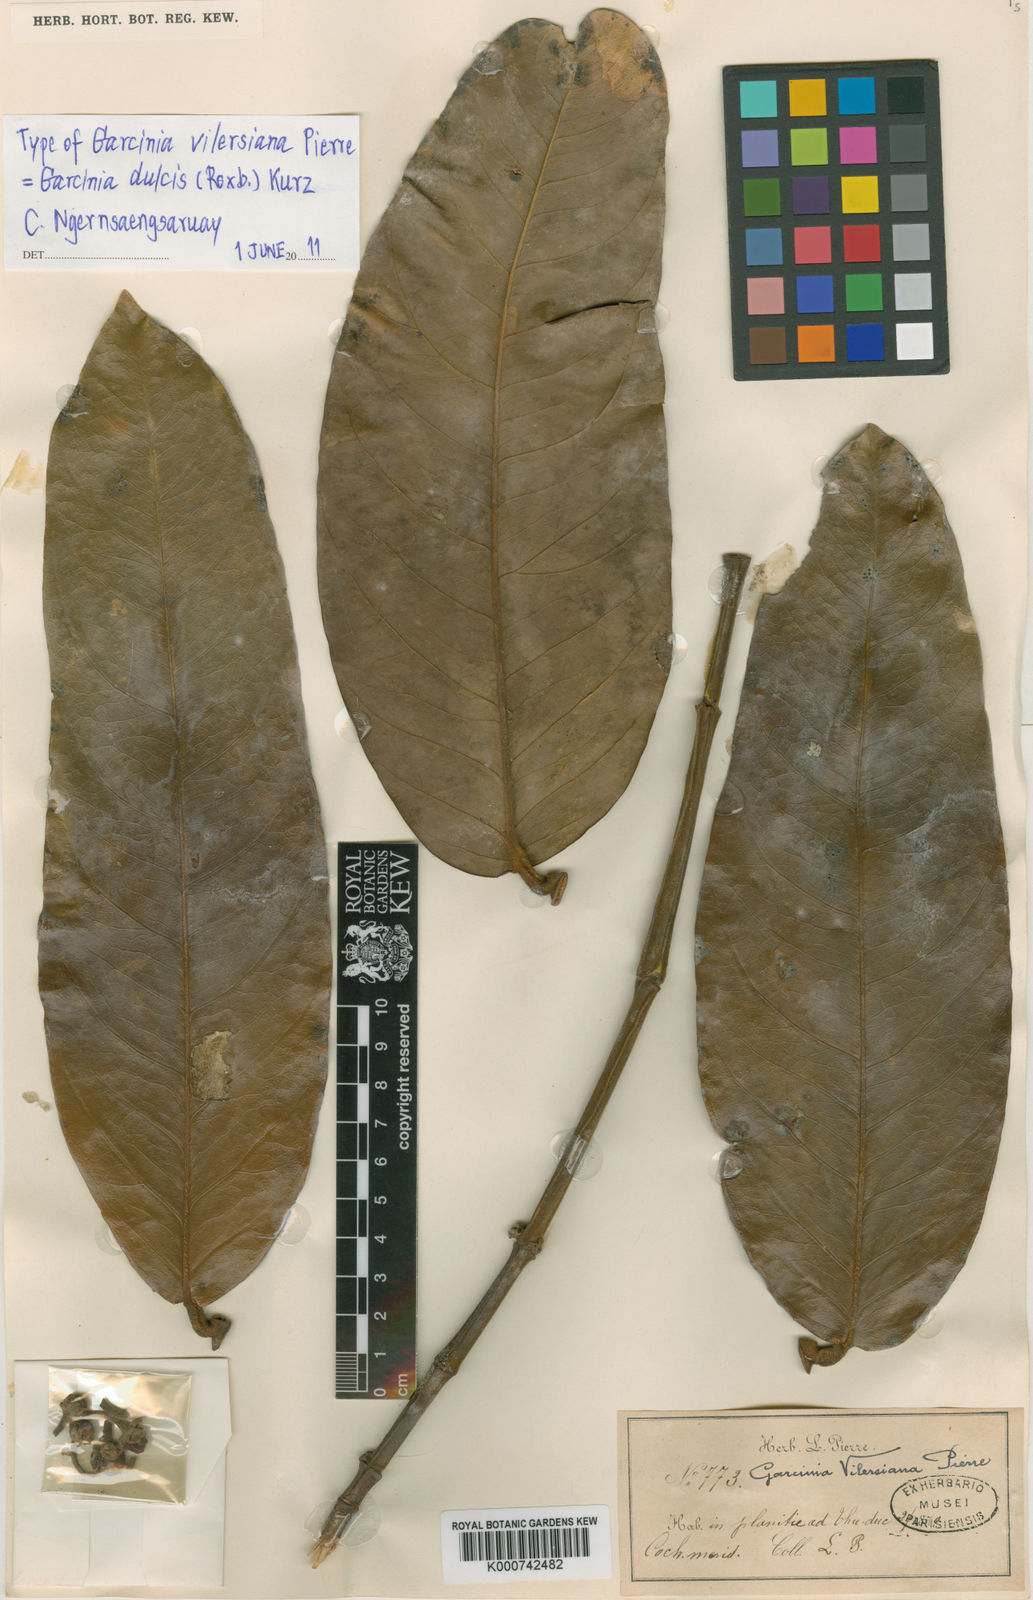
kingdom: Plantae
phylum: Tracheophyta
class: Magnoliopsida
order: Malpighiales
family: Clusiaceae
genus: Garcinia
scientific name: Garcinia vilersiana
